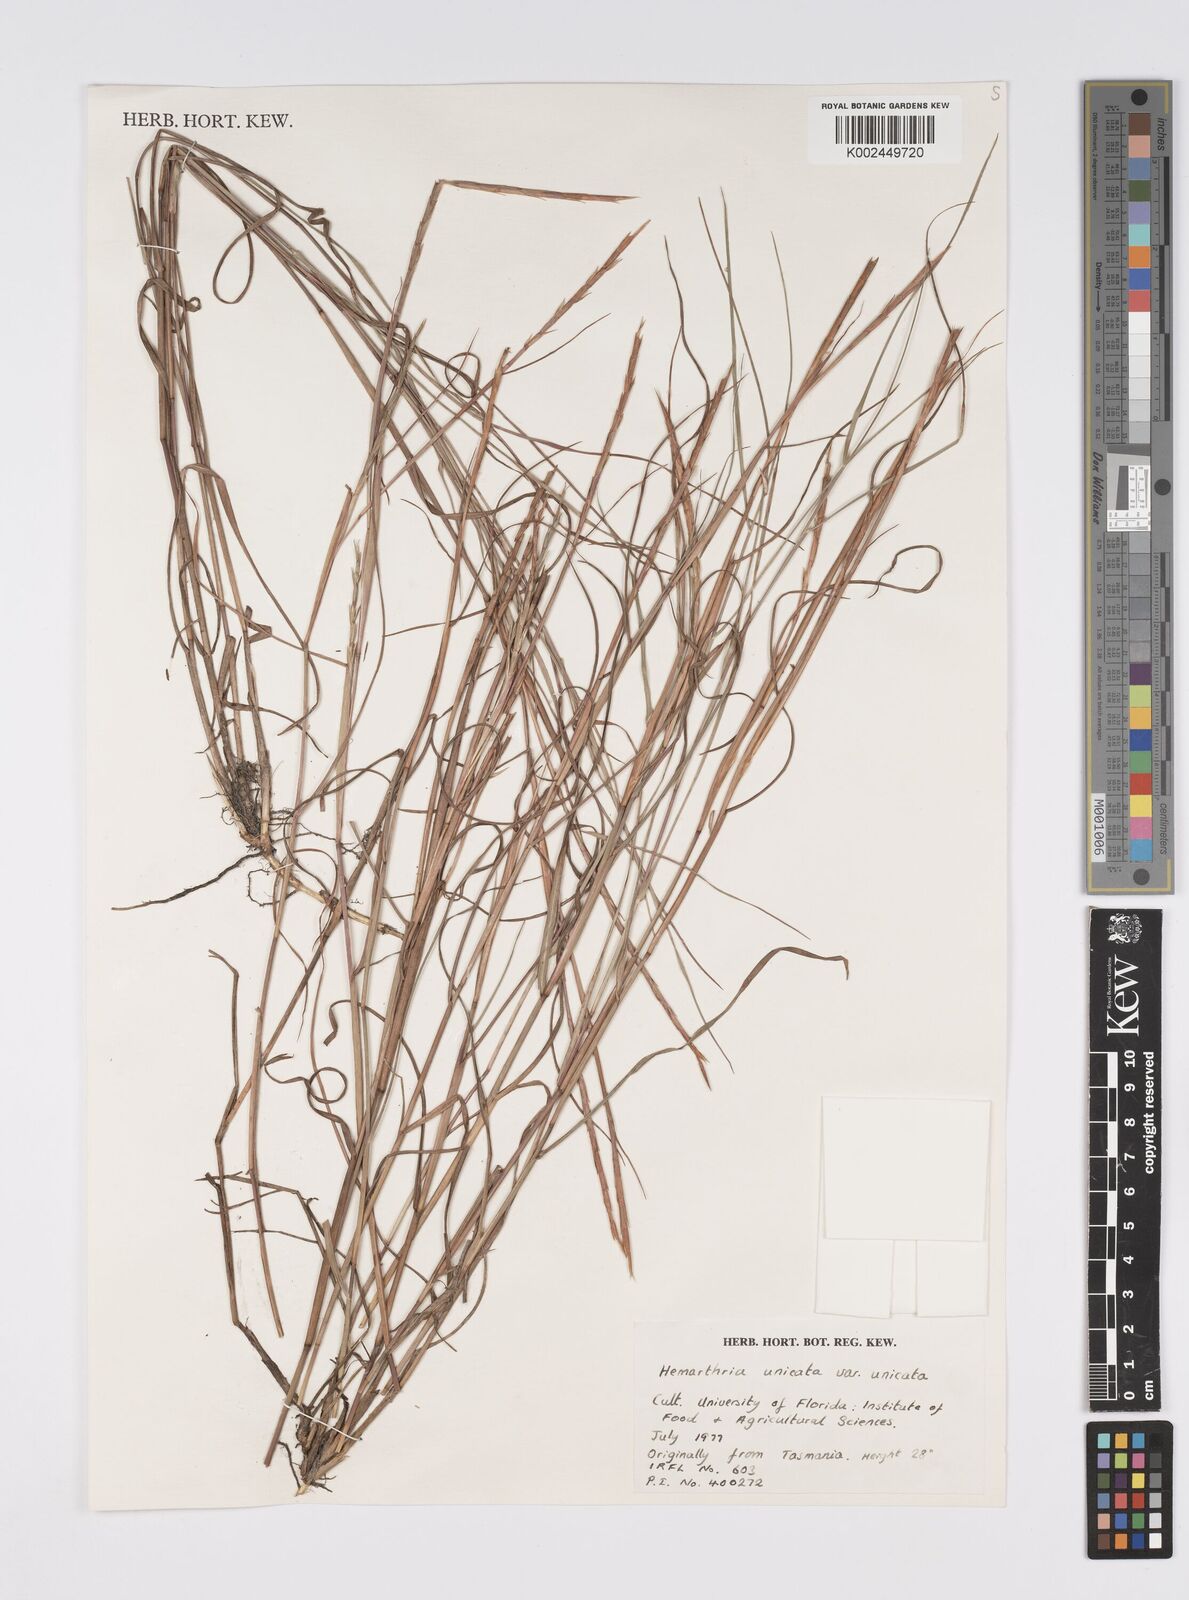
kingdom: Plantae
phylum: Tracheophyta
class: Liliopsida
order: Poales
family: Poaceae
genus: Hemarthria
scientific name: Hemarthria uncinata
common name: Matgrass
